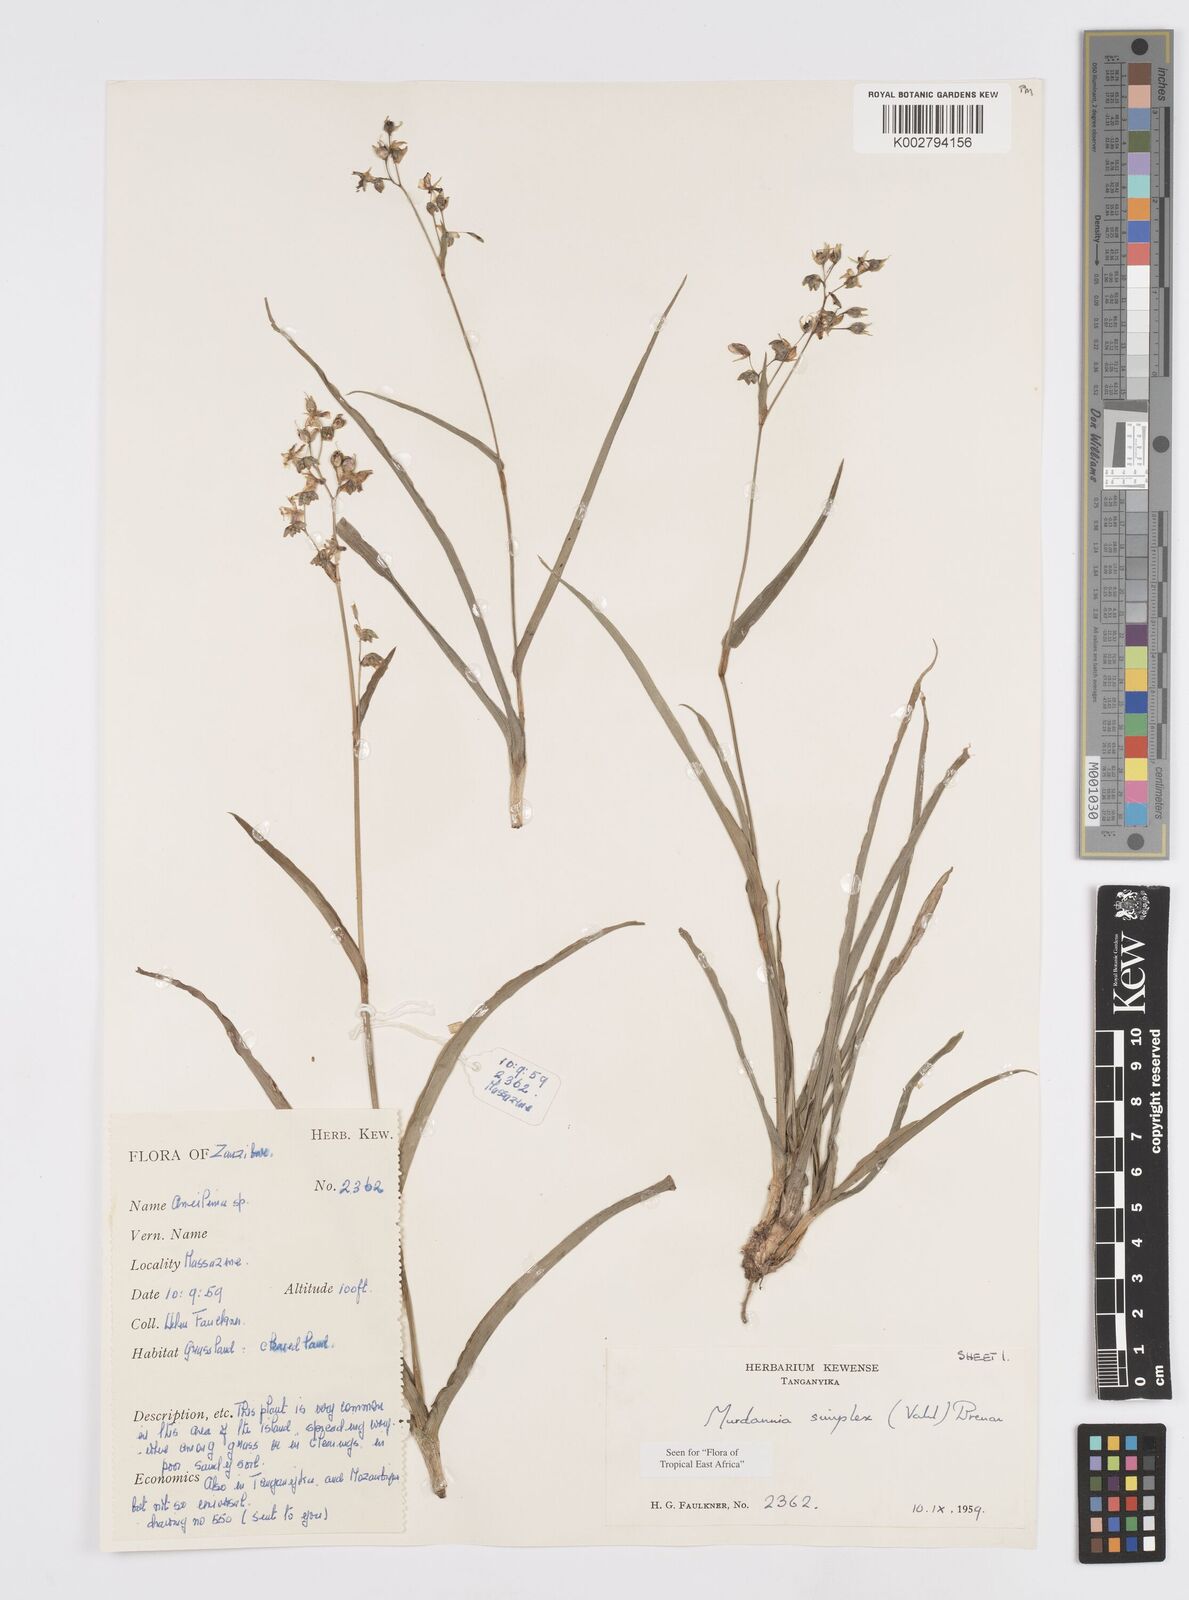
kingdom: Plantae
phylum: Tracheophyta
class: Liliopsida
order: Commelinales
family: Commelinaceae
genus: Murdannia
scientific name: Murdannia simplex
